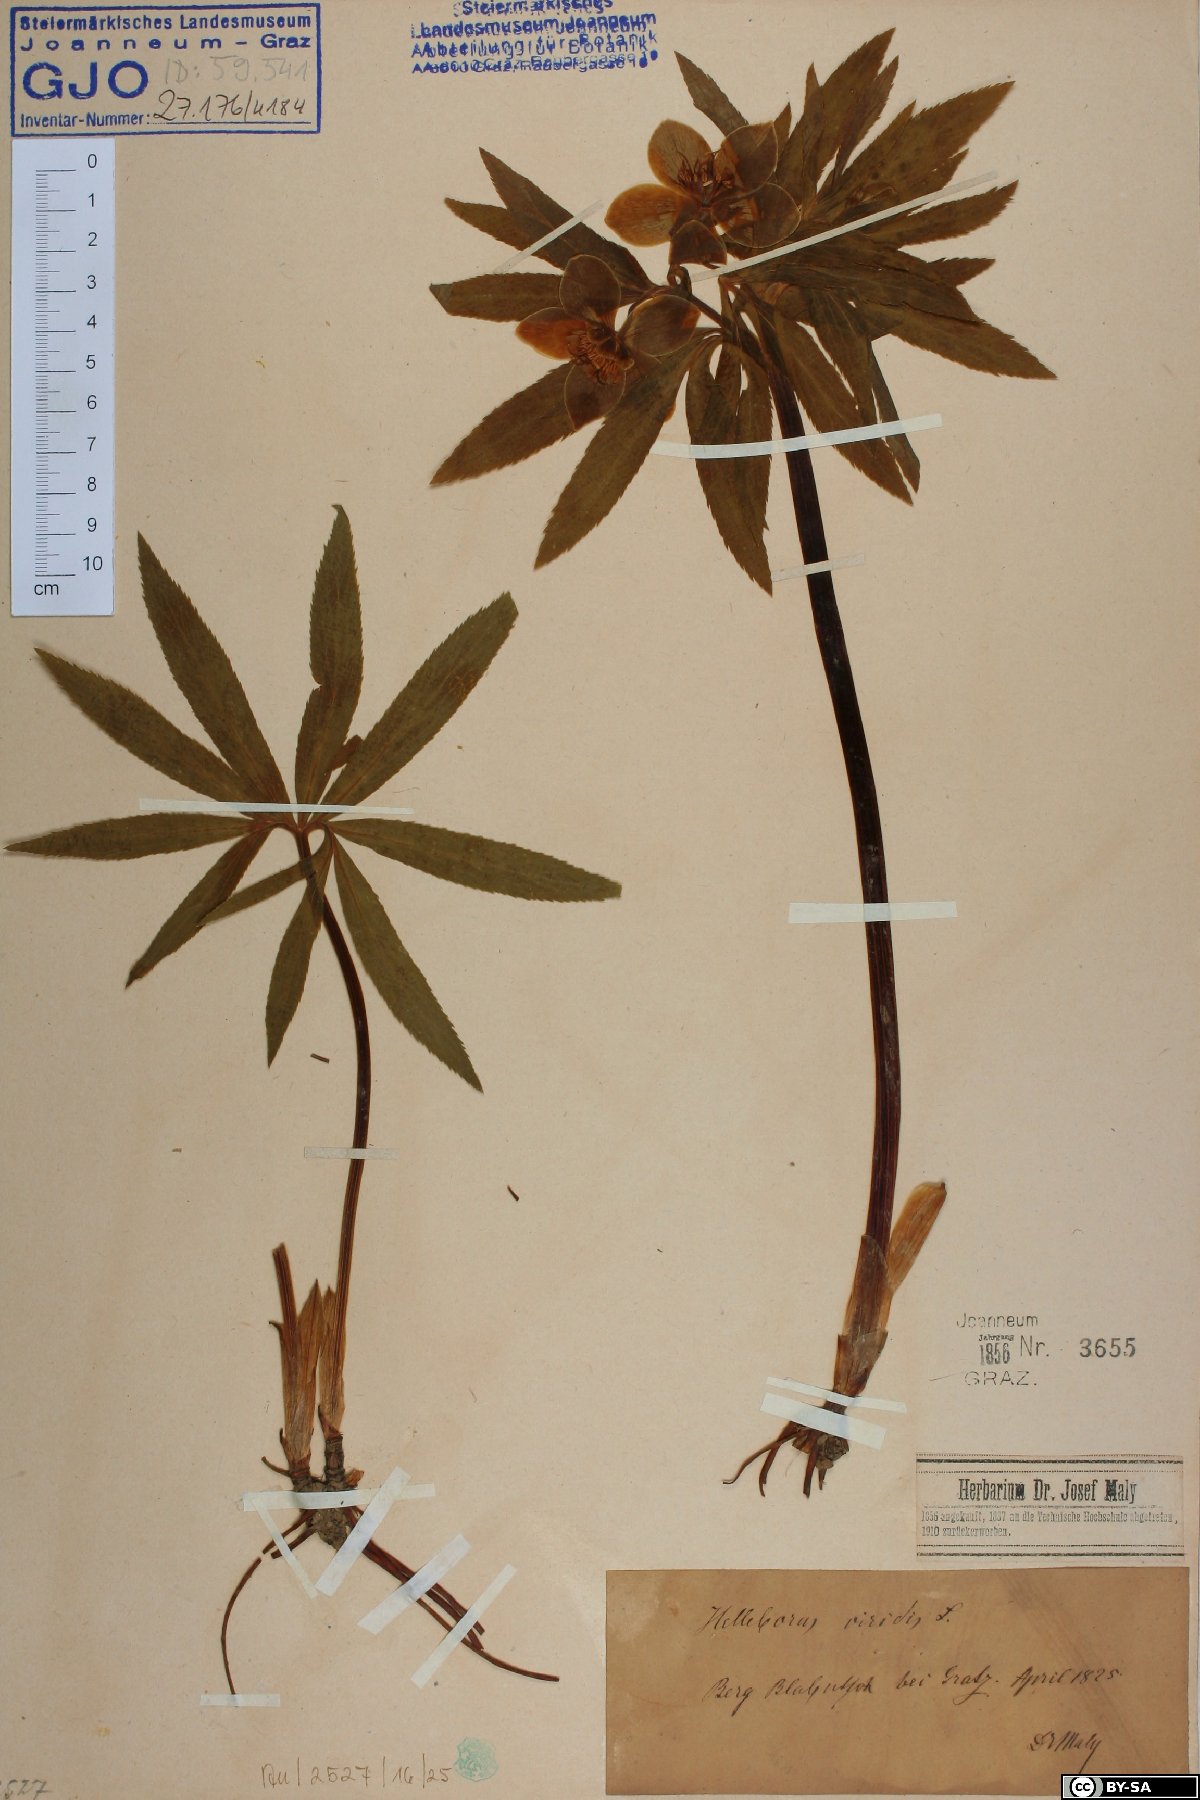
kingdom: Plantae
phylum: Tracheophyta
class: Magnoliopsida
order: Ranunculales
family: Ranunculaceae
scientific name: Ranunculaceae
